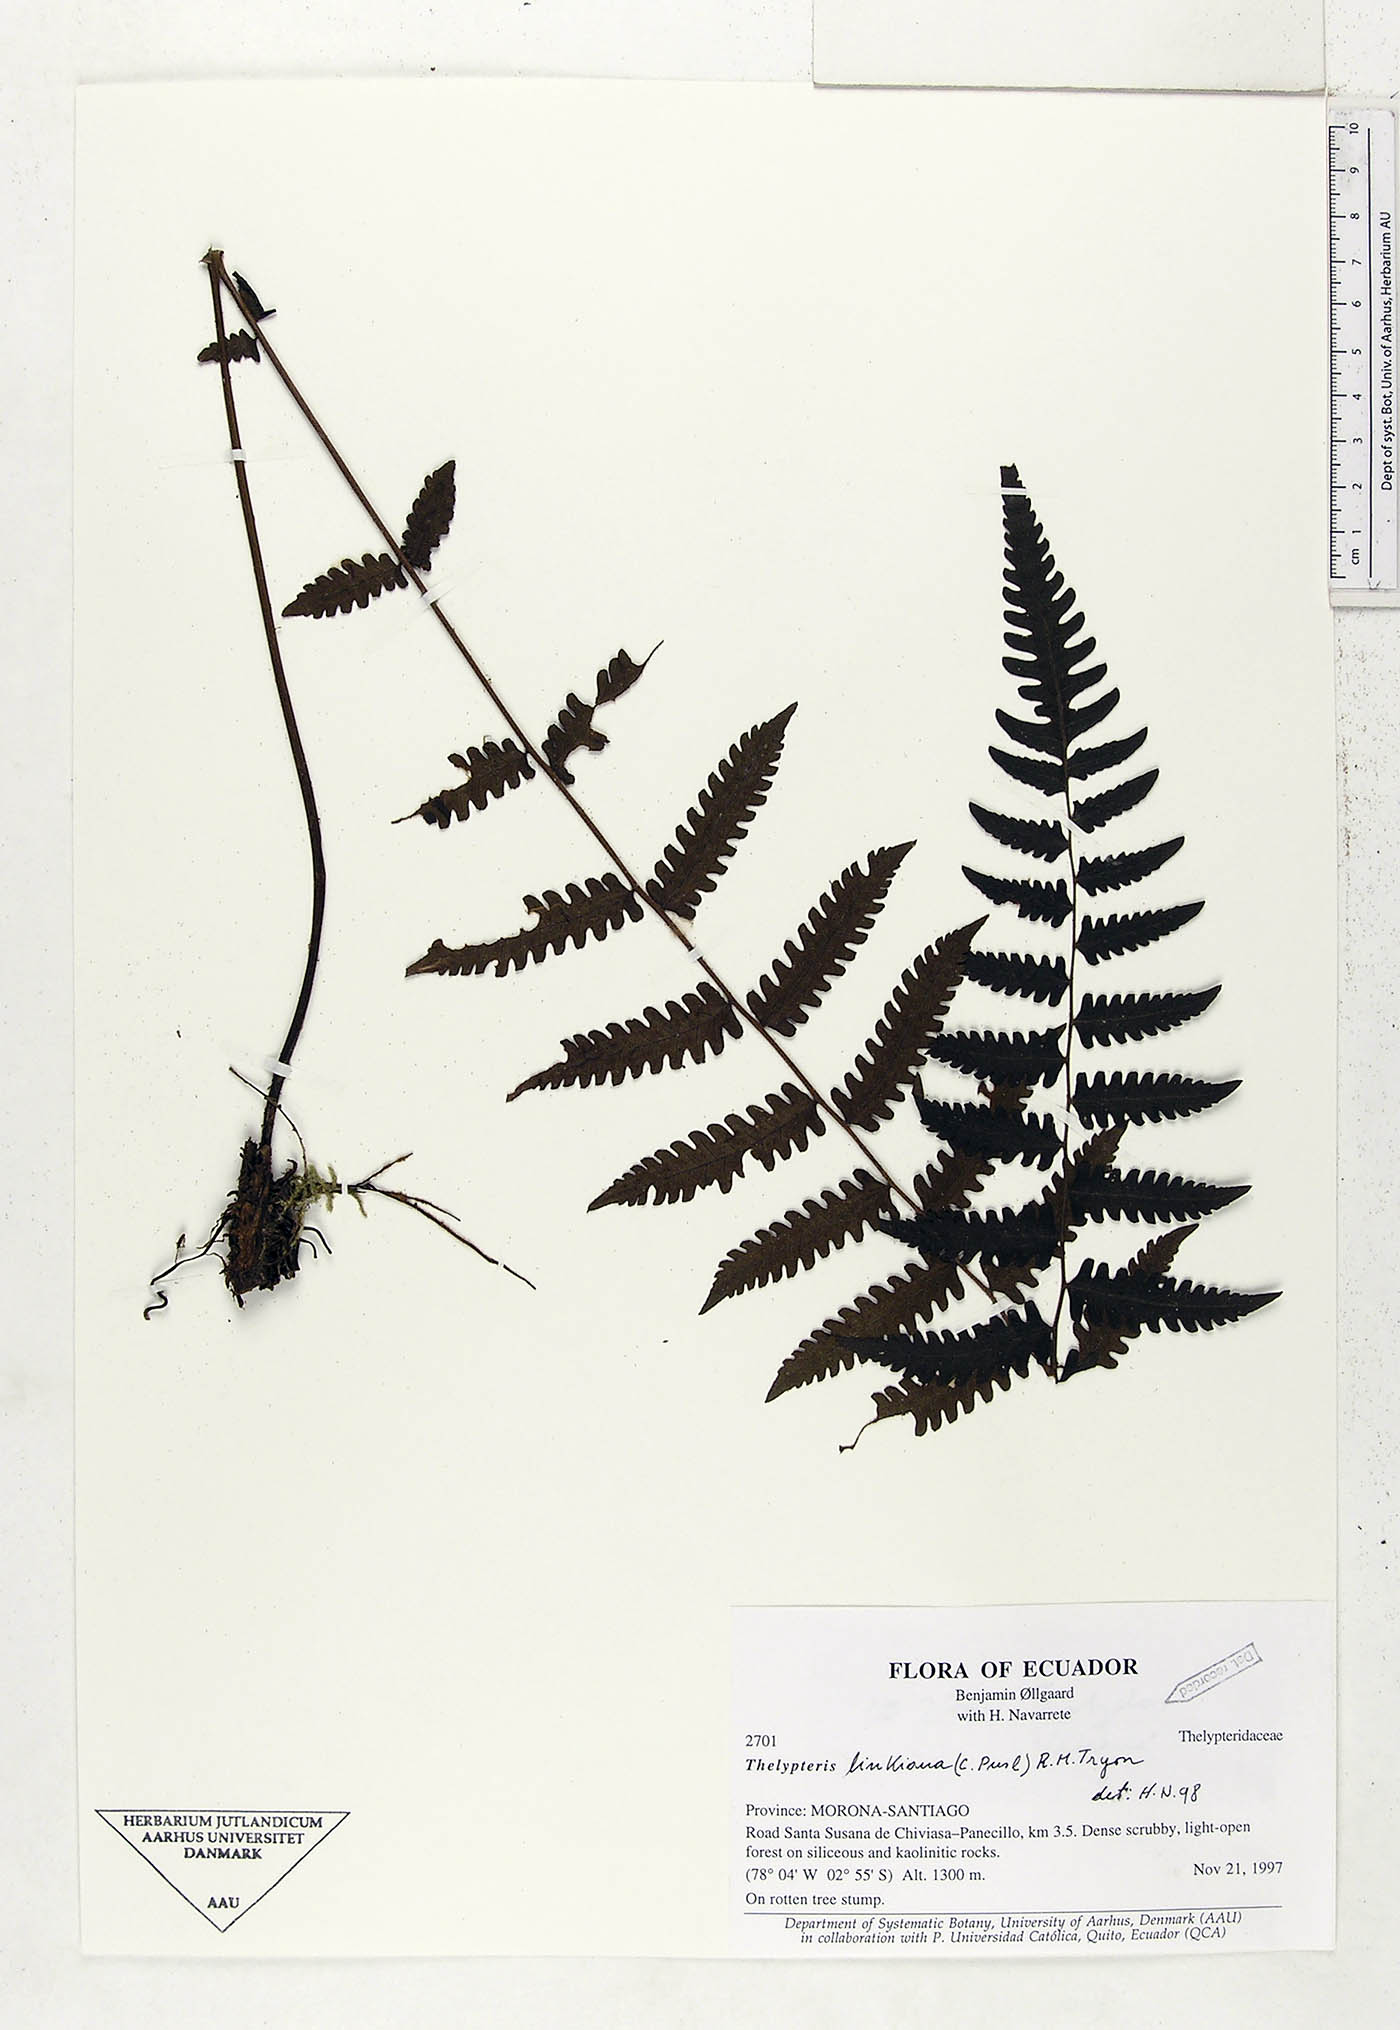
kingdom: Plantae
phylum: Tracheophyta
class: Polypodiopsida
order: Polypodiales
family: Thelypteridaceae
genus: Amauropelta
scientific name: Amauropelta diplazioides
